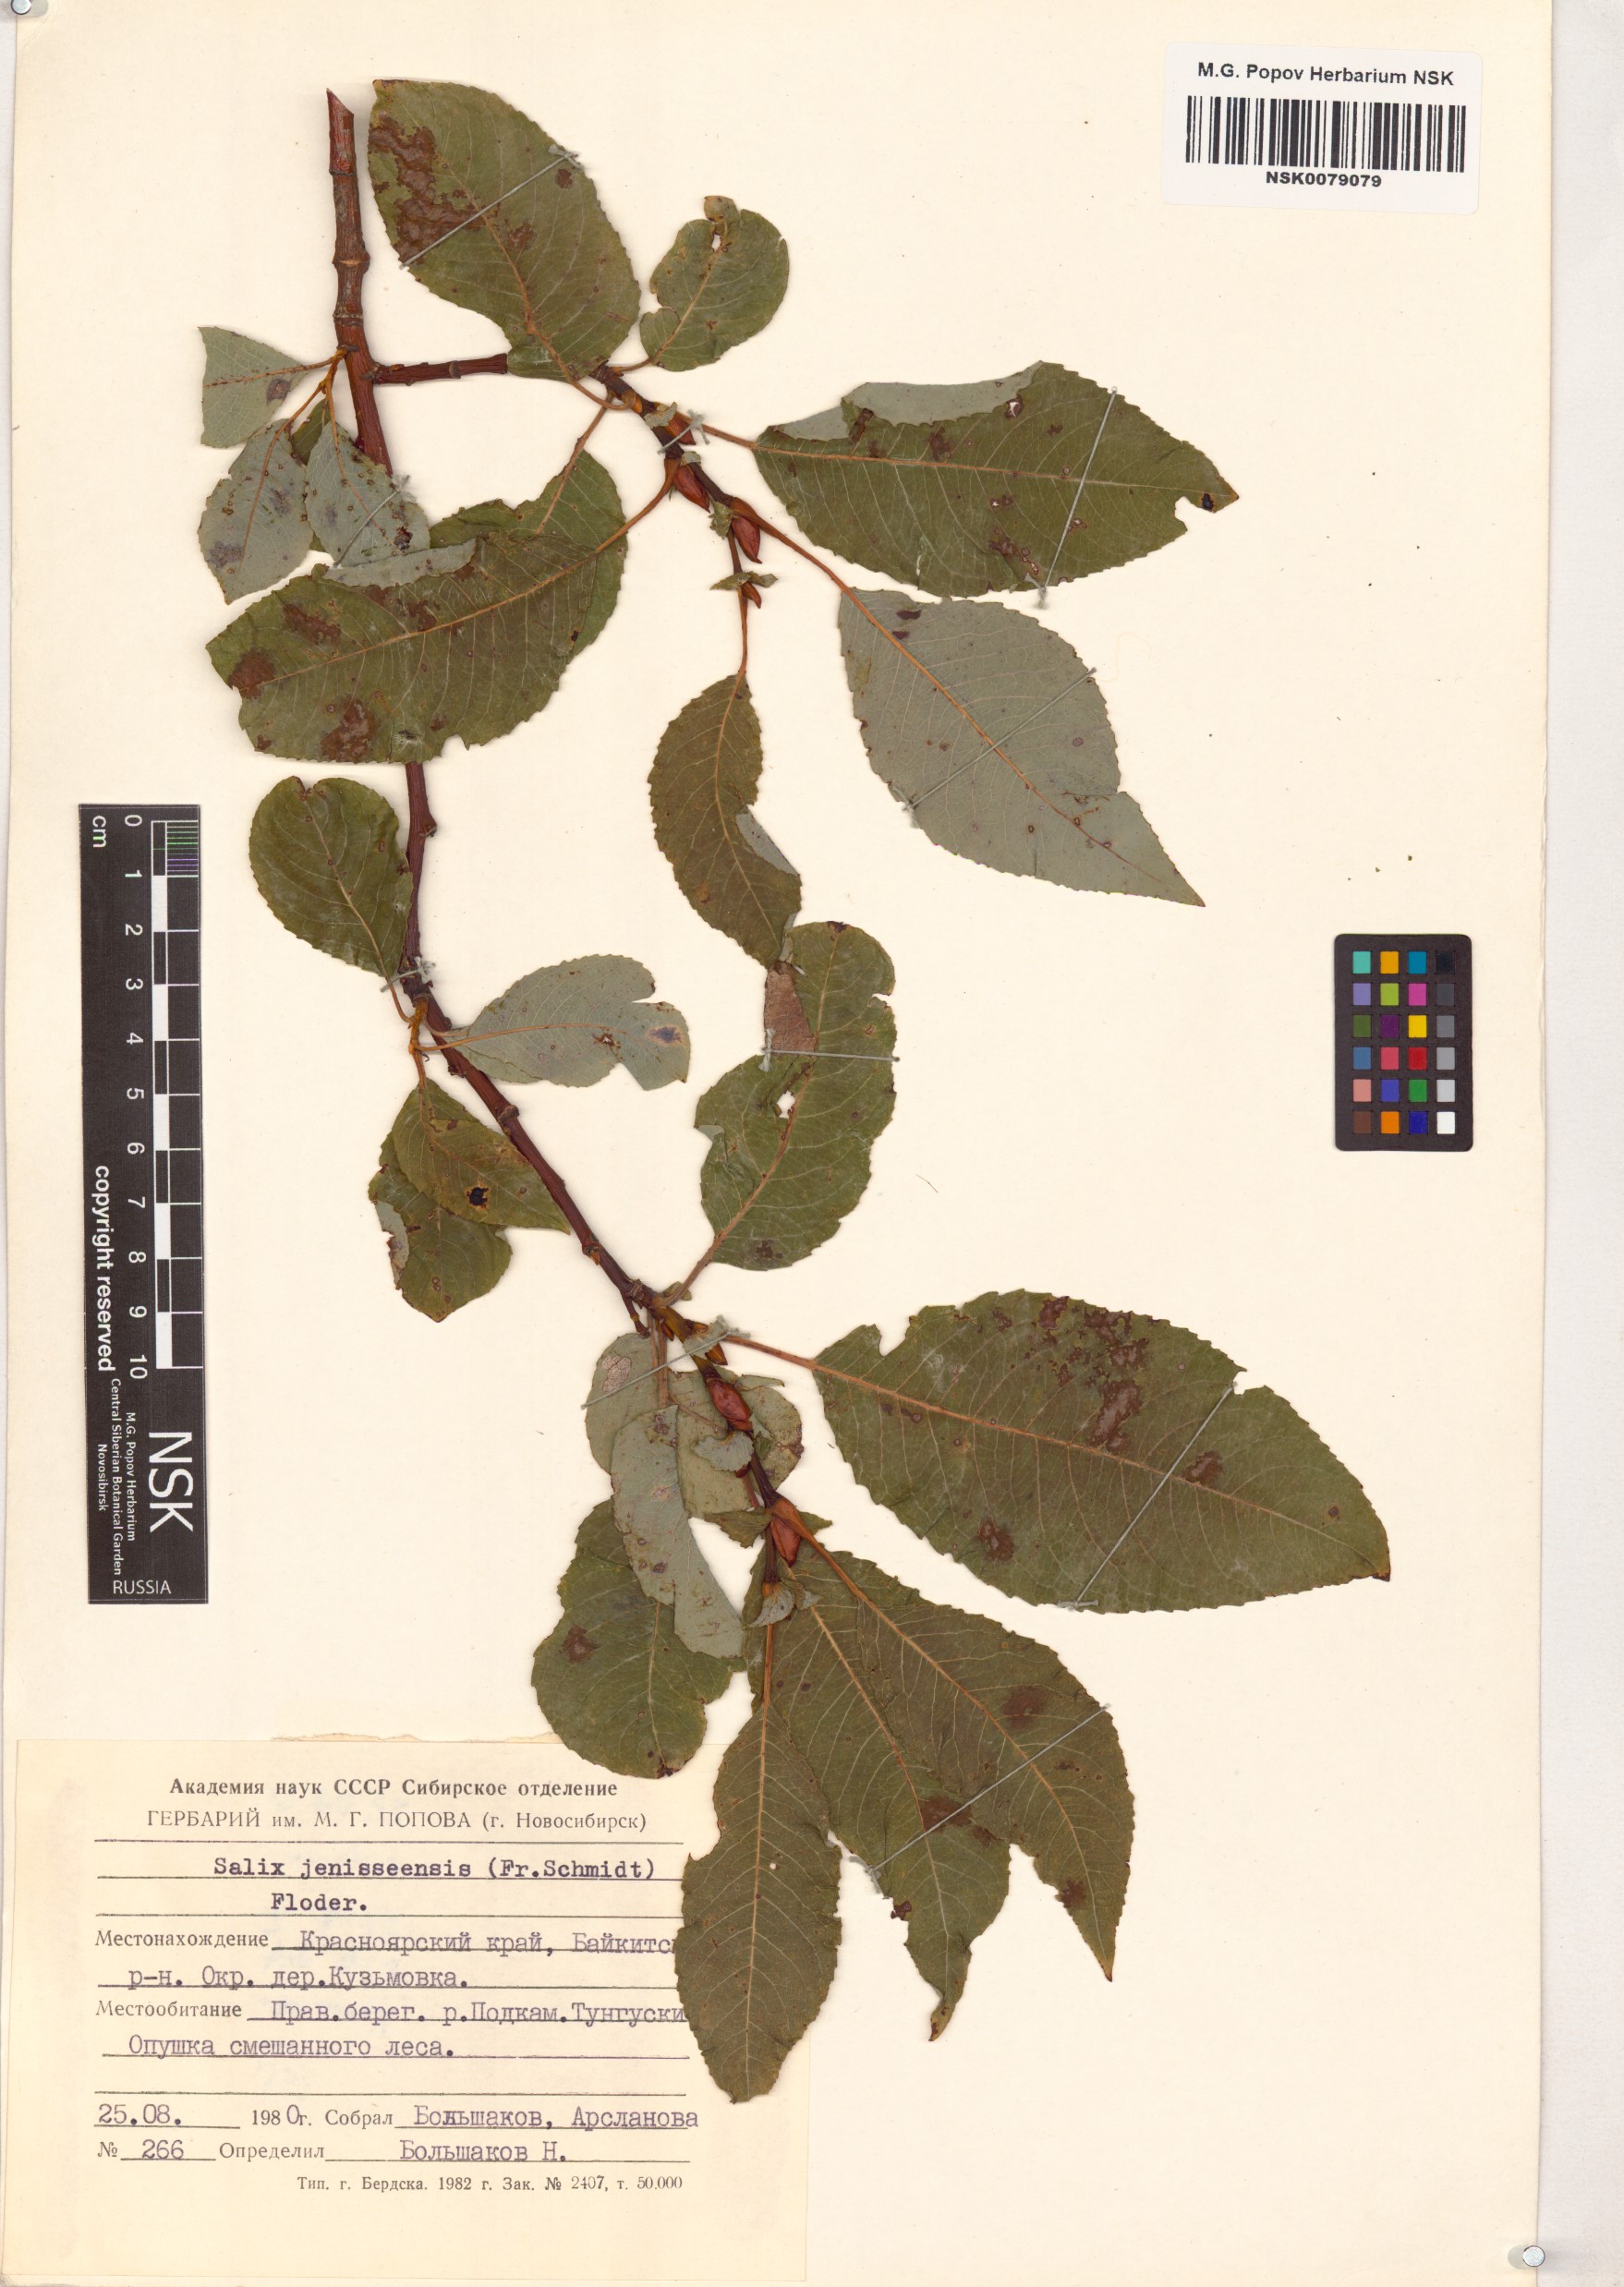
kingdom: Plantae
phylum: Tracheophyta
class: Magnoliopsida
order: Malpighiales
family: Salicaceae
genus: Salix
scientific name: Salix jenisseensis
